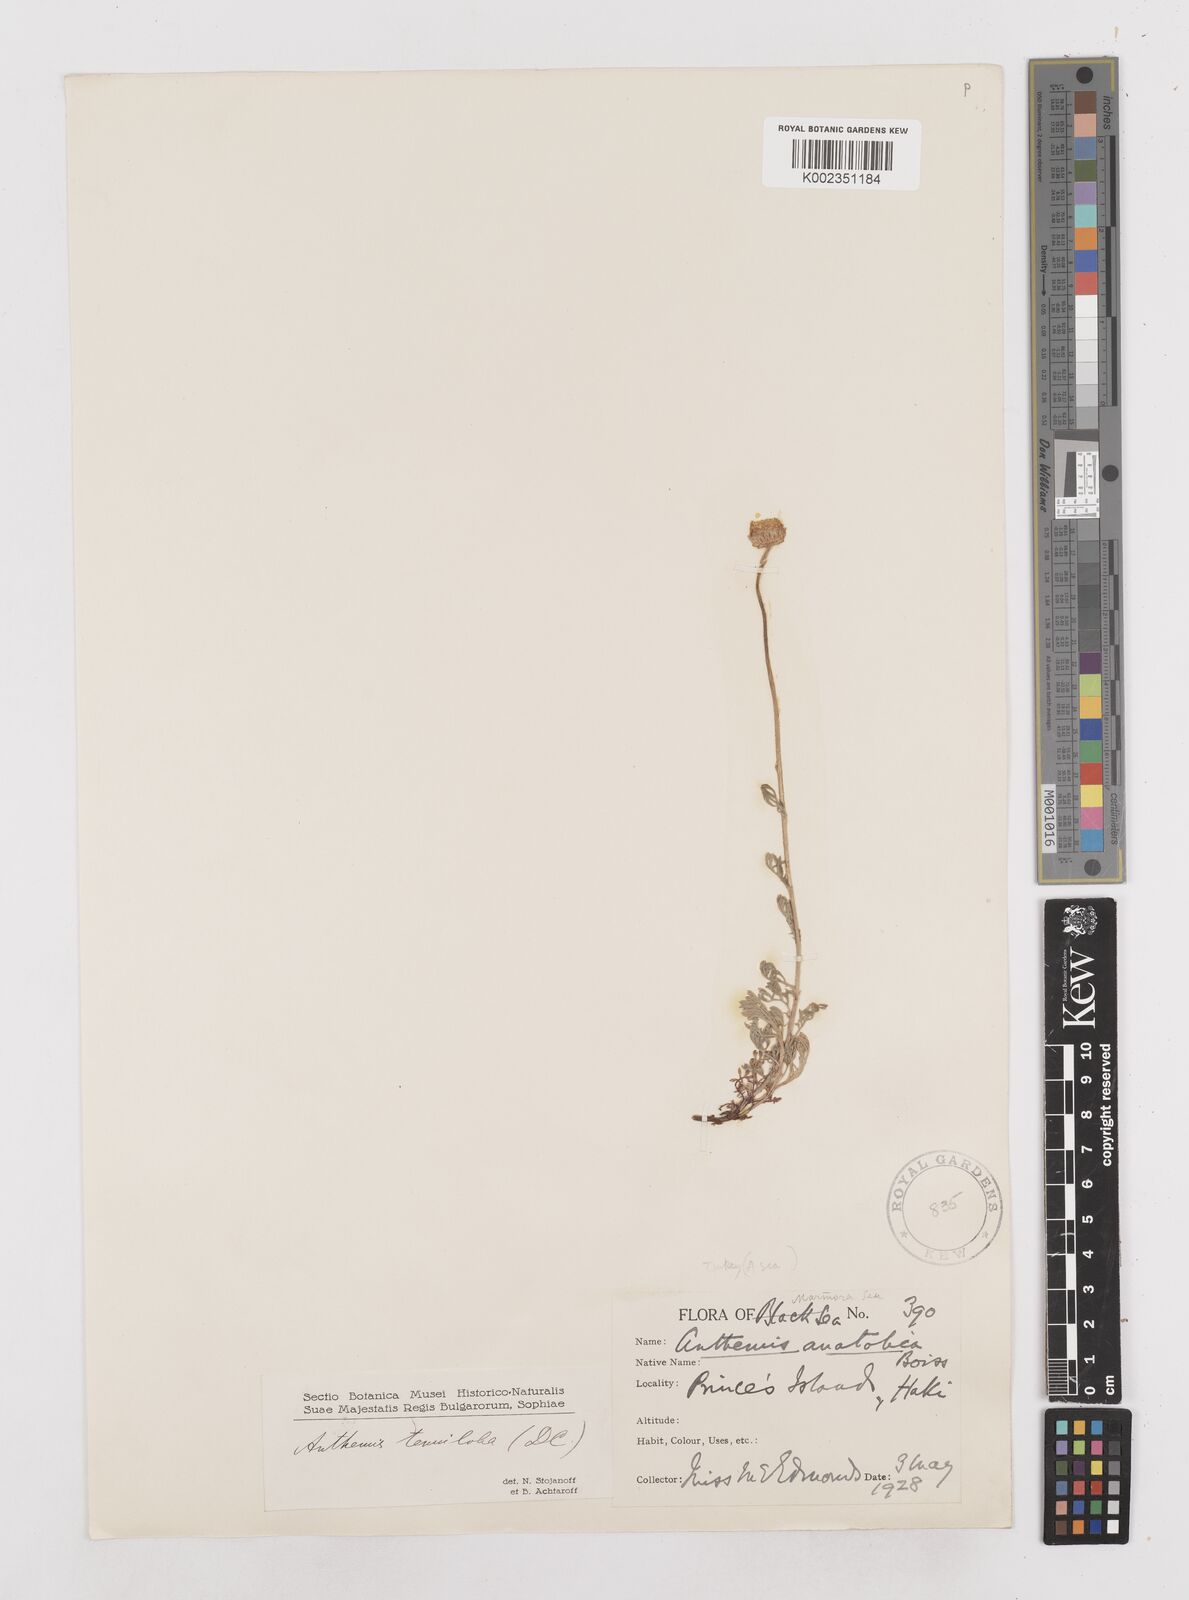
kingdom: Plantae
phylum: Tracheophyta
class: Magnoliopsida
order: Asterales
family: Asteraceae
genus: Anthemis
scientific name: Anthemis cretica
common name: Mountain dog-daisy
